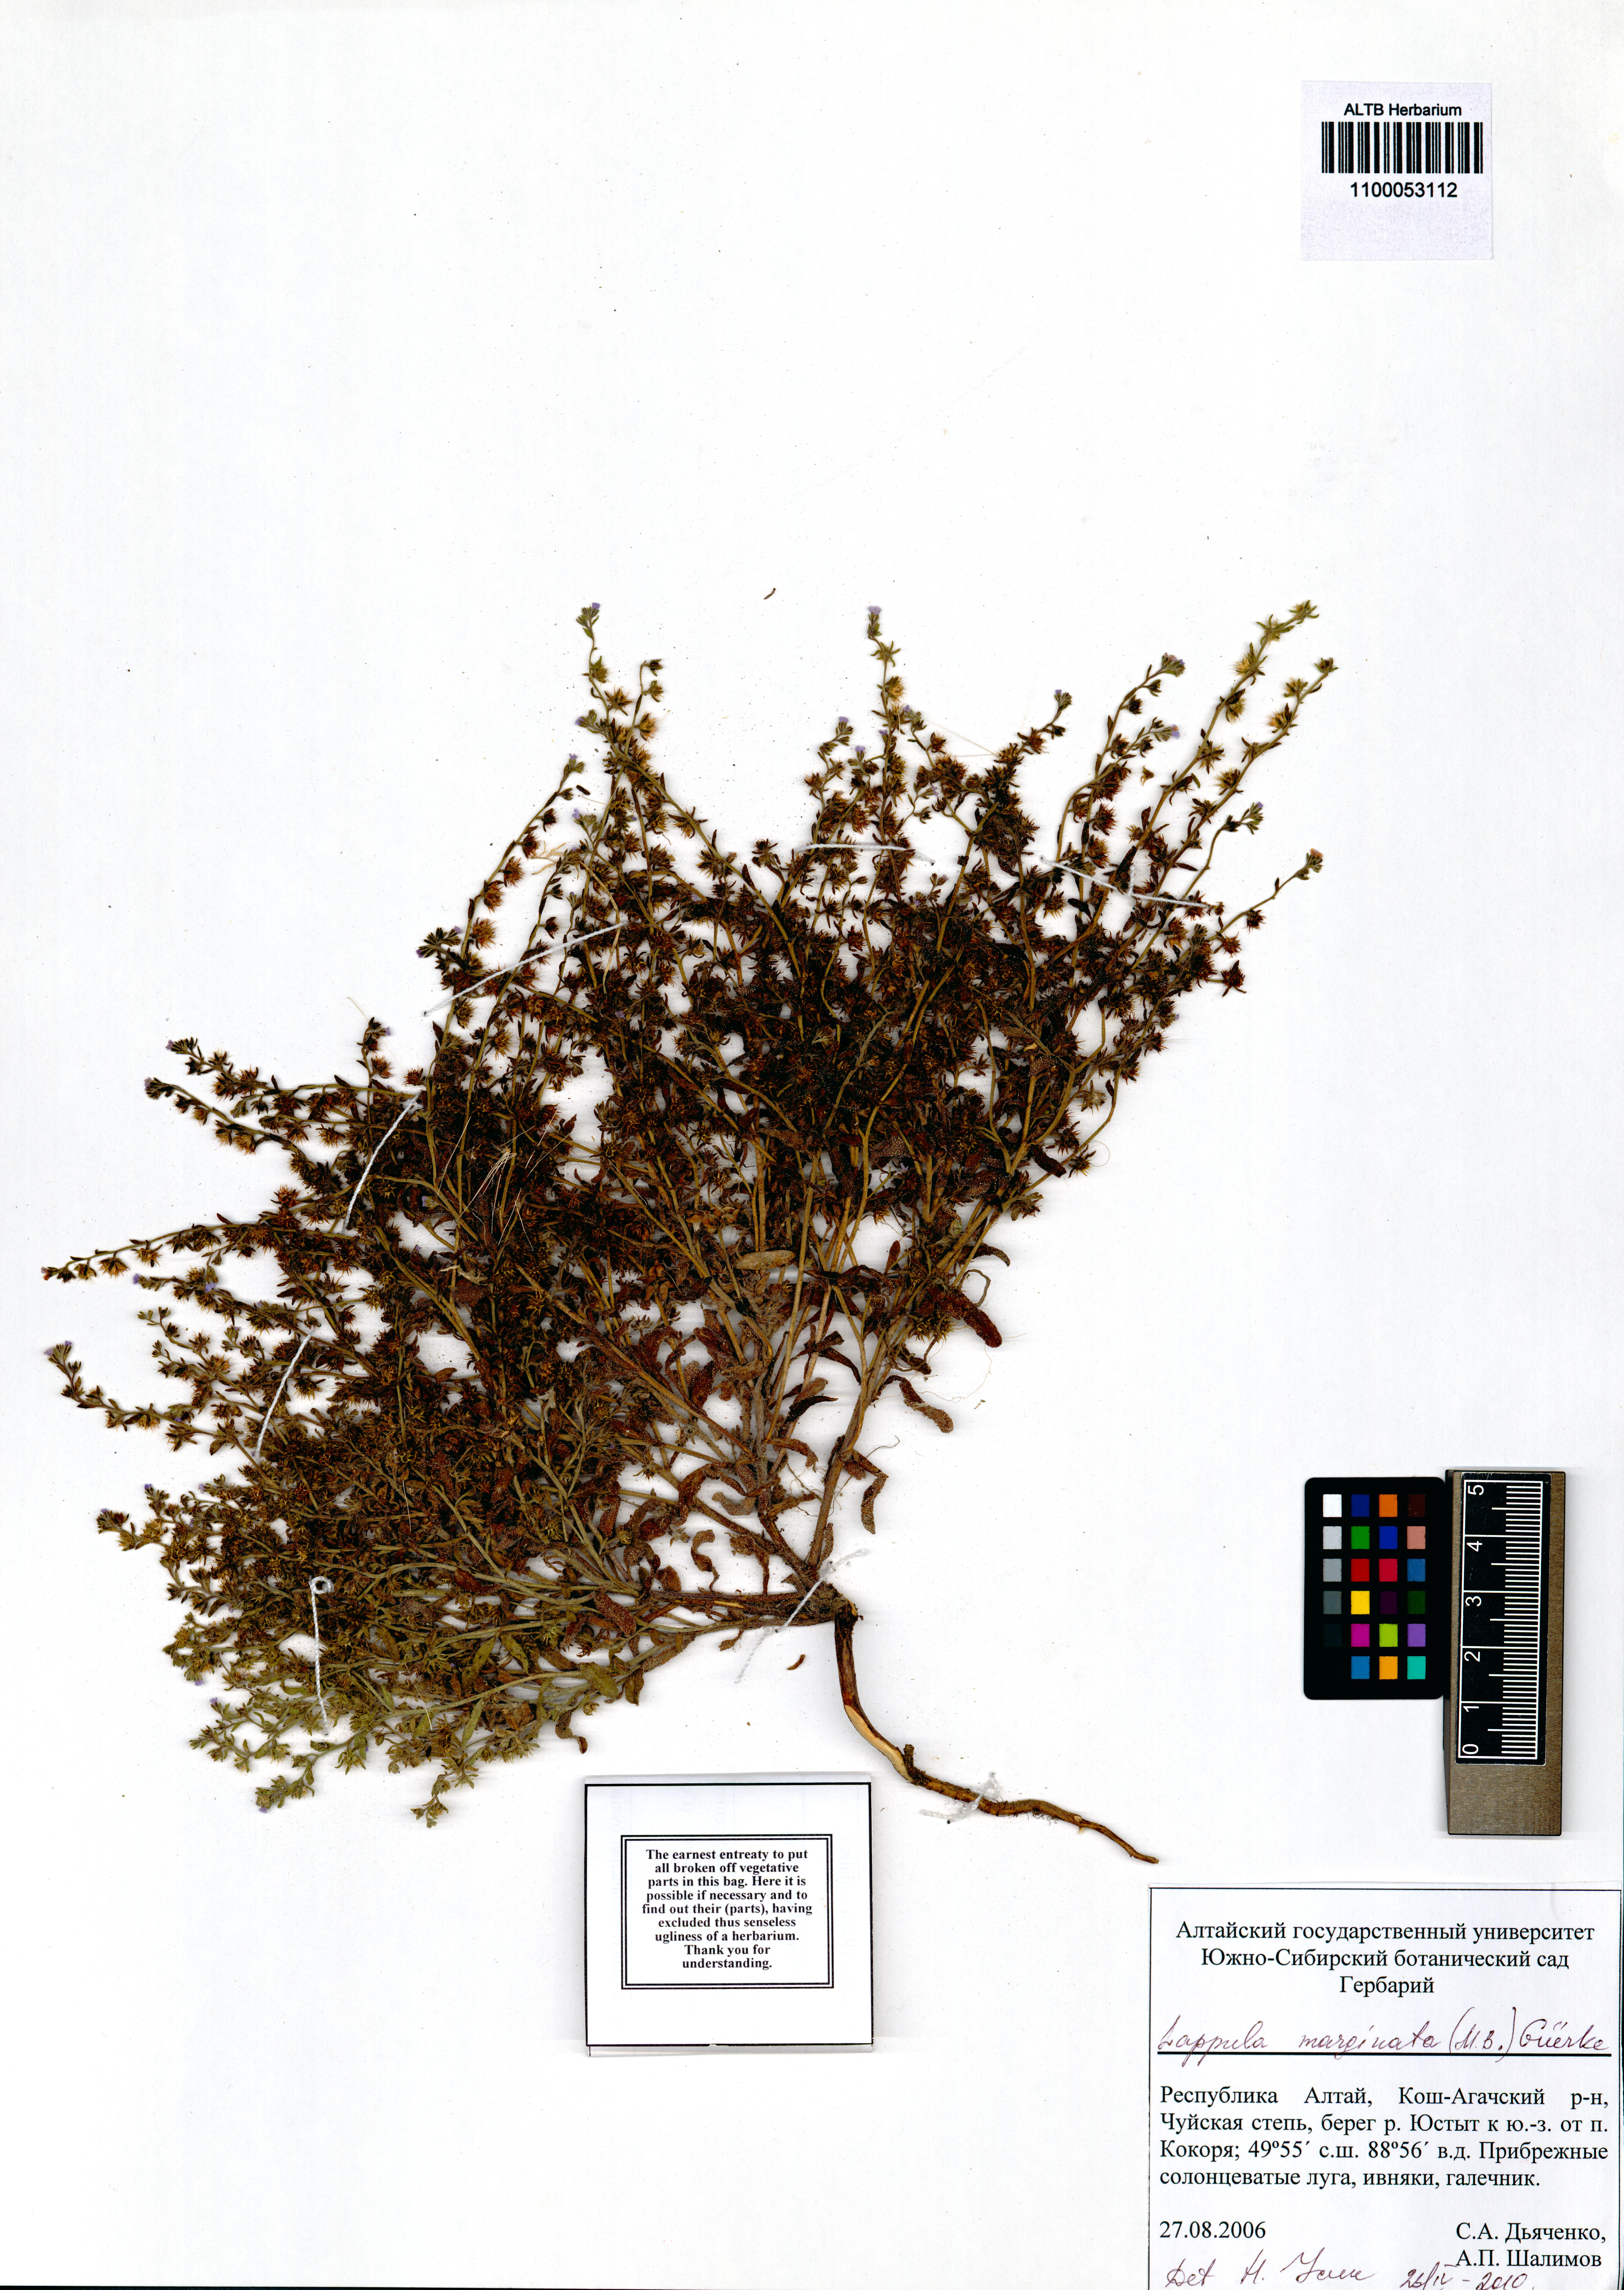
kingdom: Plantae
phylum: Tracheophyta
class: Magnoliopsida
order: Boraginales
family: Boraginaceae
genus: Lappula
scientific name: Lappula marginata
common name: Margined stickseed
